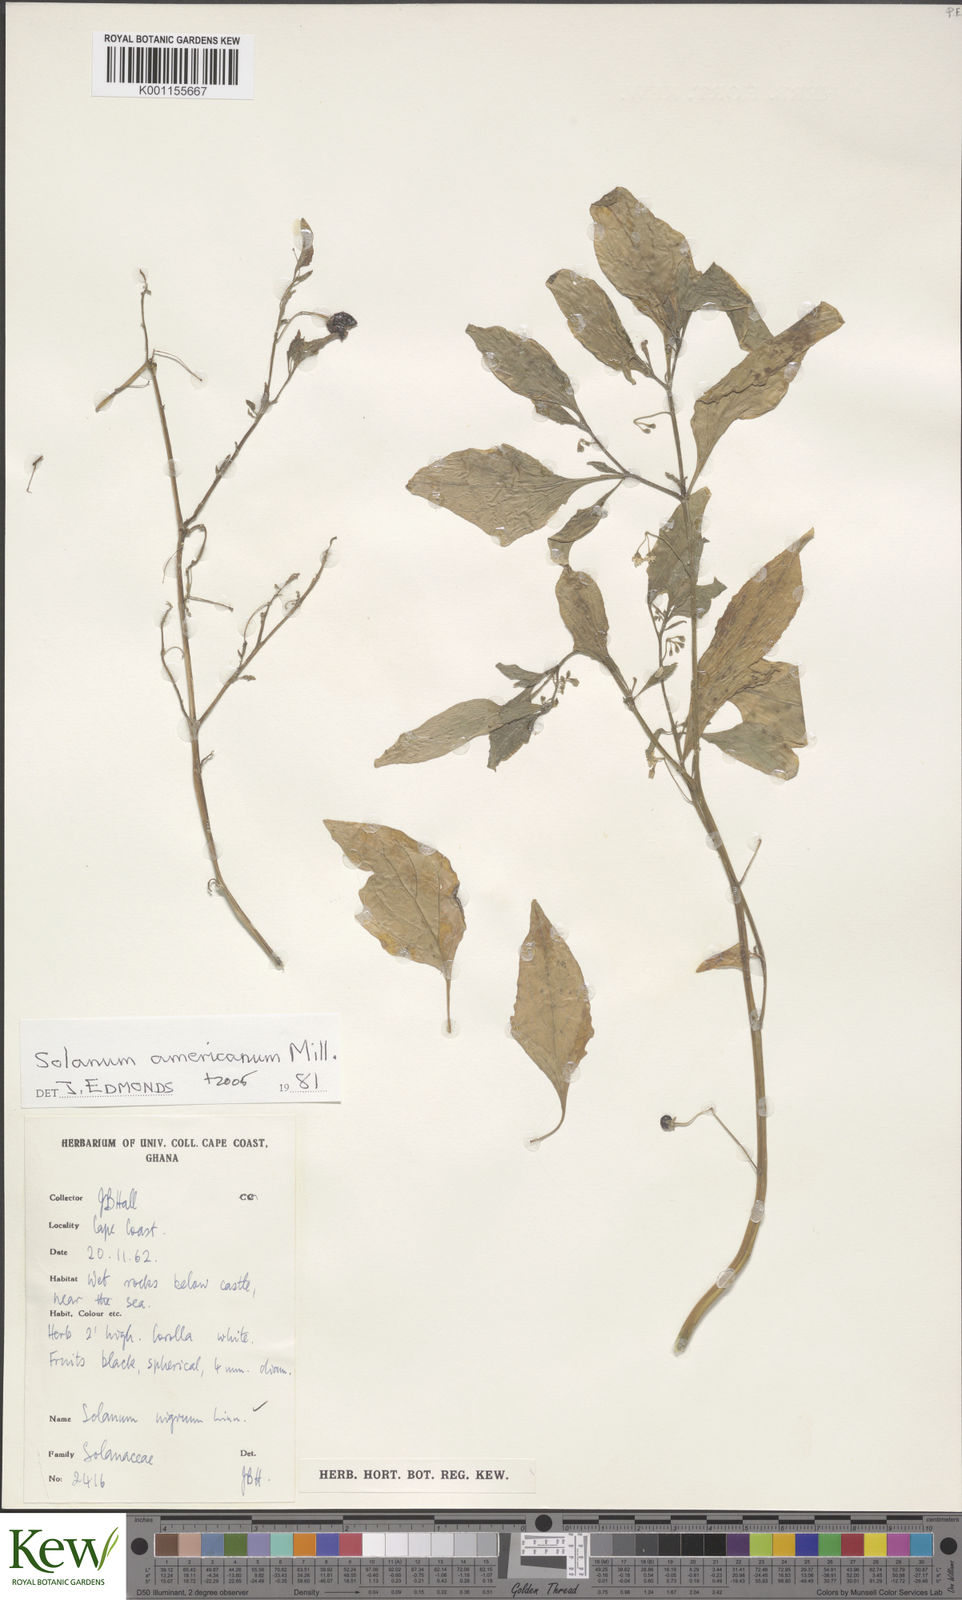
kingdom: Plantae
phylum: Tracheophyta
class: Magnoliopsida
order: Solanales
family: Solanaceae
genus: Solanum
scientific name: Solanum americanum
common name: American black nightshade
